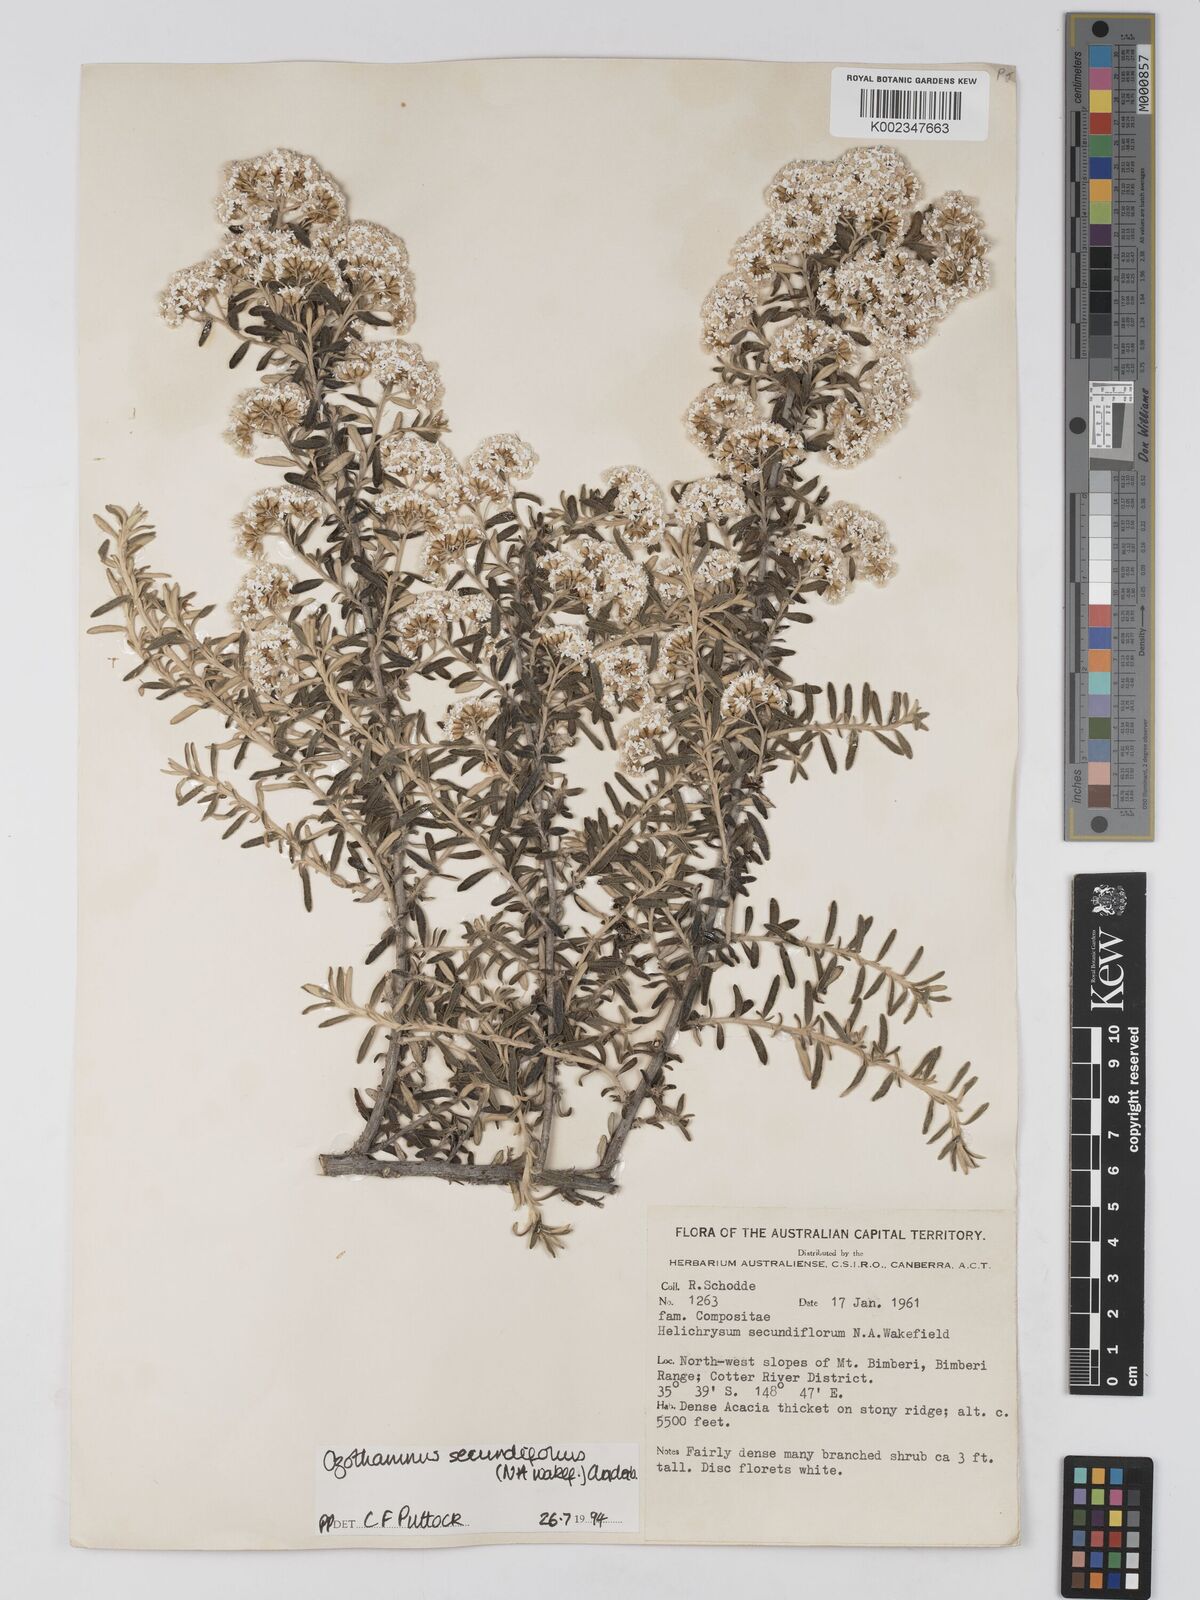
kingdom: Plantae
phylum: Tracheophyta
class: Magnoliopsida
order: Asterales
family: Asteraceae
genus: Ozothamnus
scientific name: Ozothamnus secundiflorus
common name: Cascade everlasting
